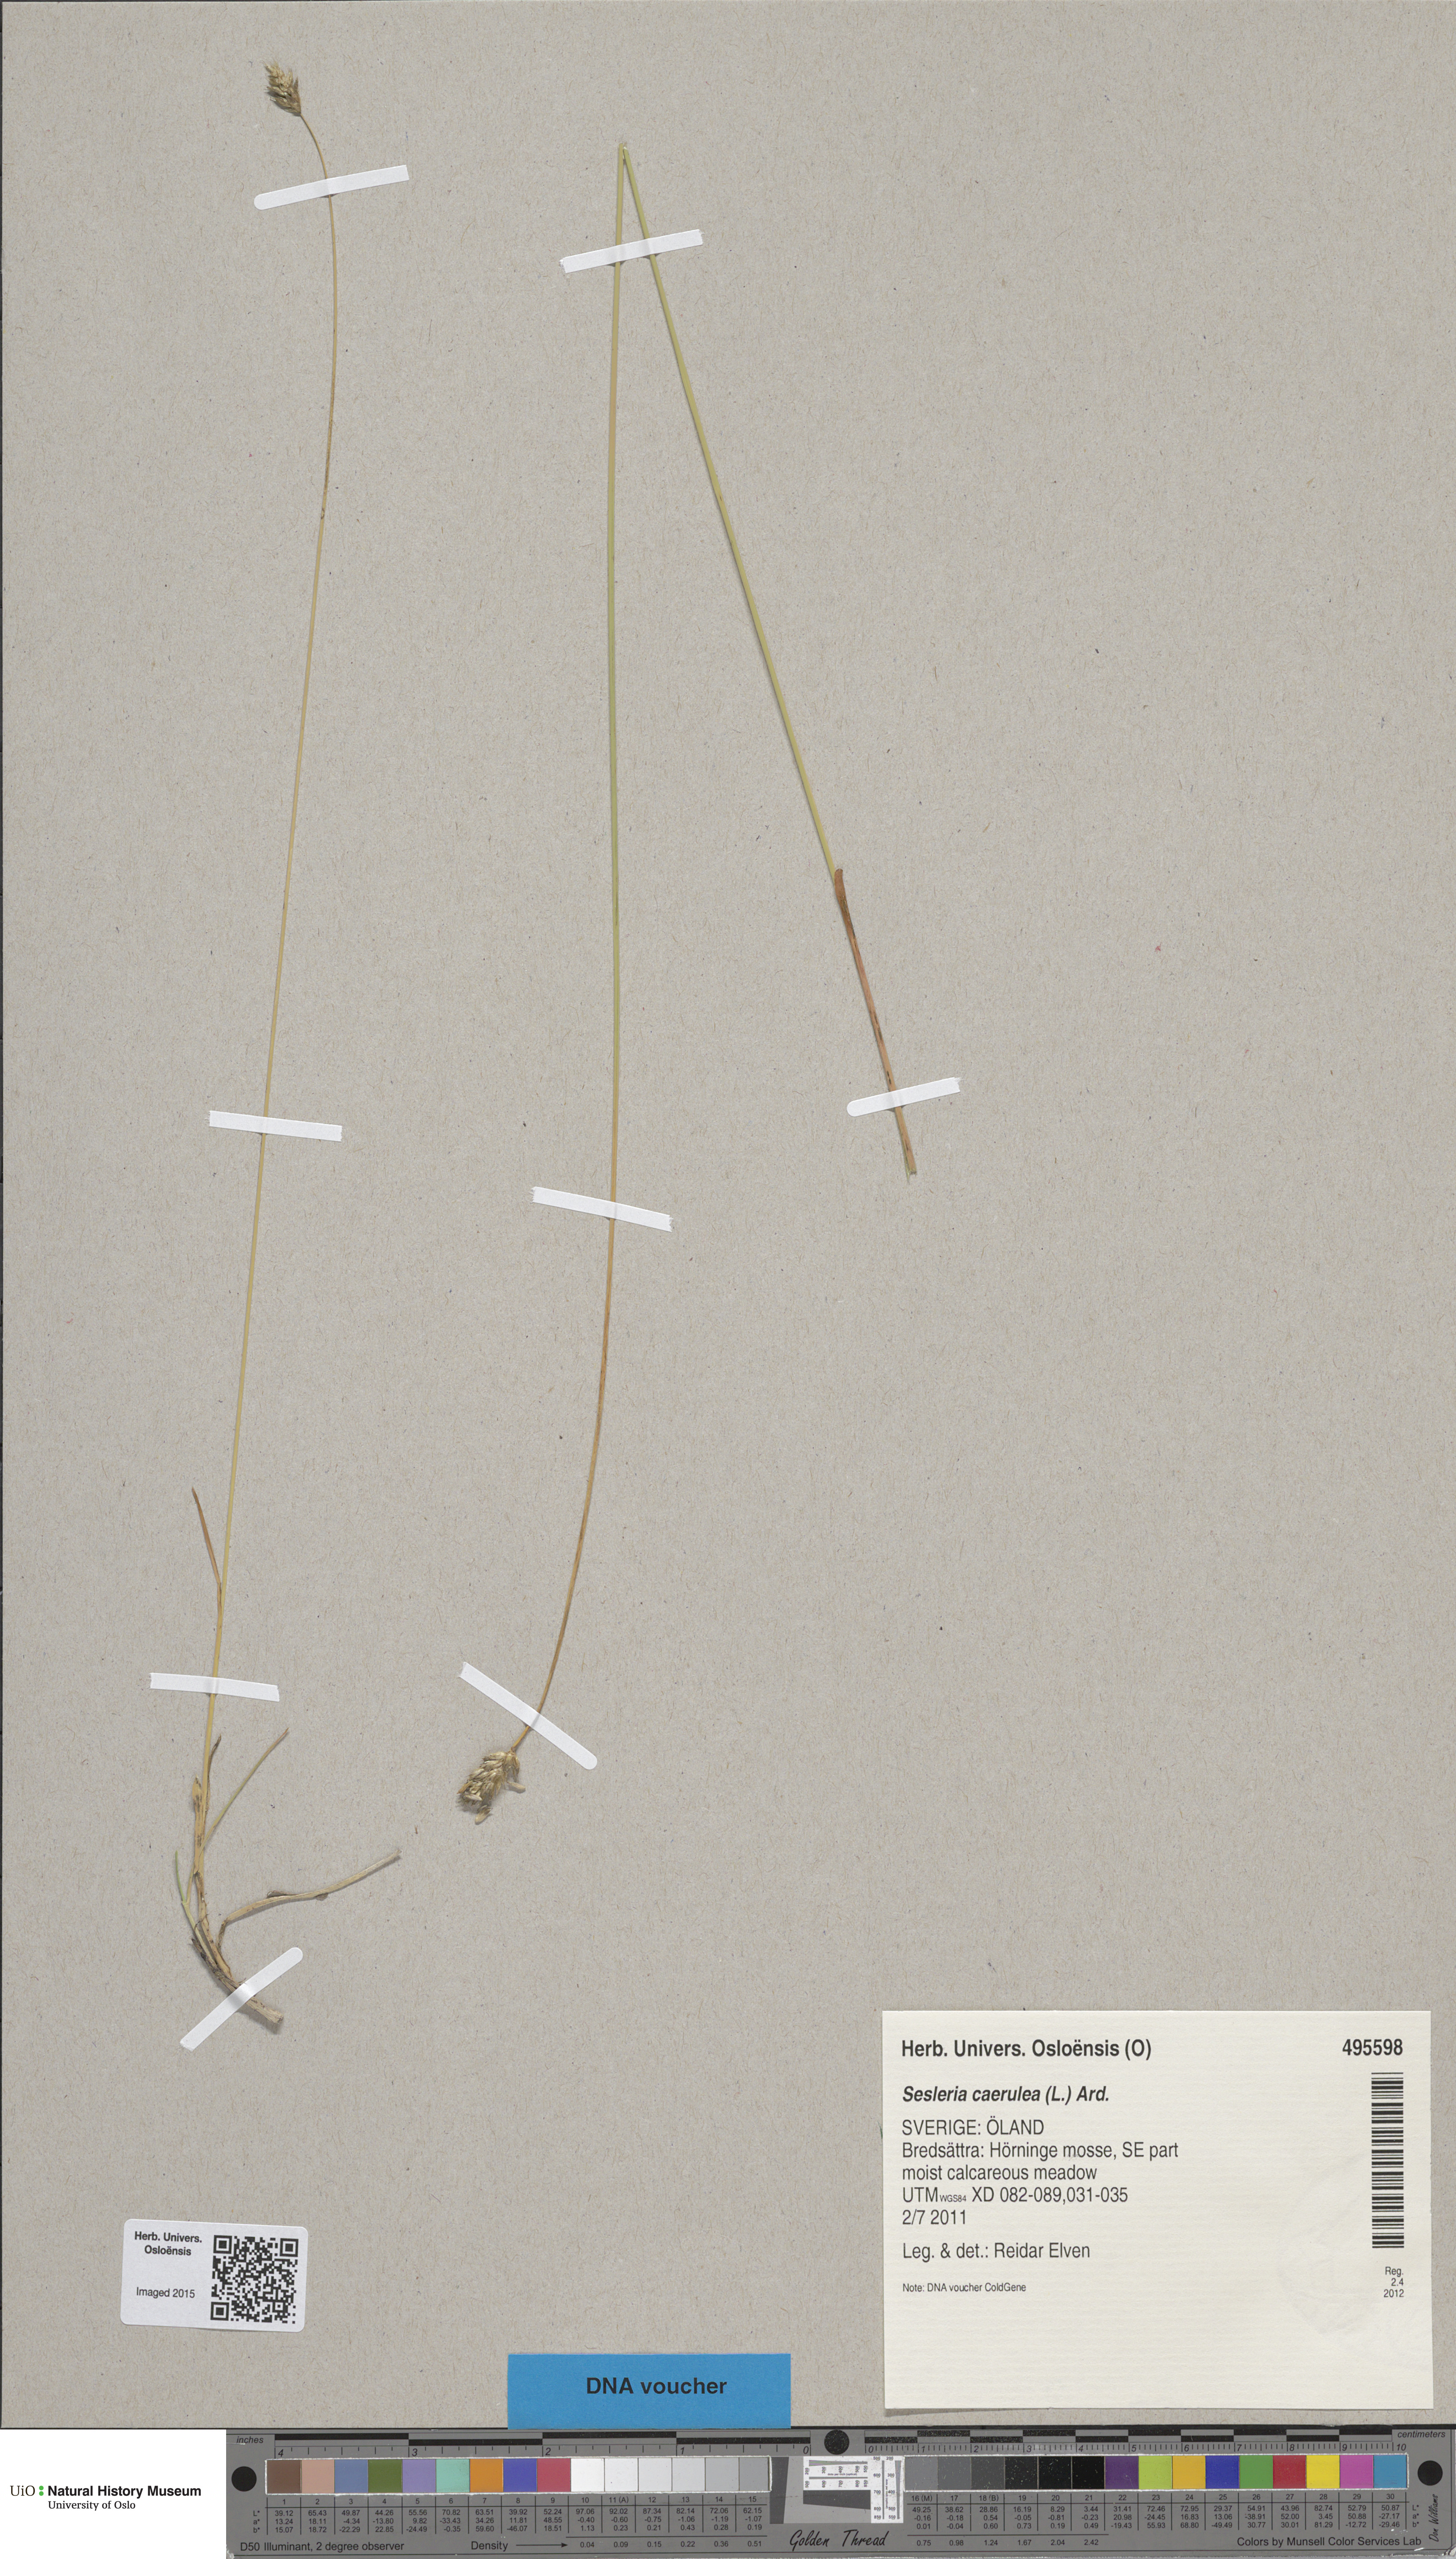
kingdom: Plantae
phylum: Tracheophyta
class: Liliopsida
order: Poales
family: Poaceae
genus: Sesleria
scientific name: Sesleria uliginosa
